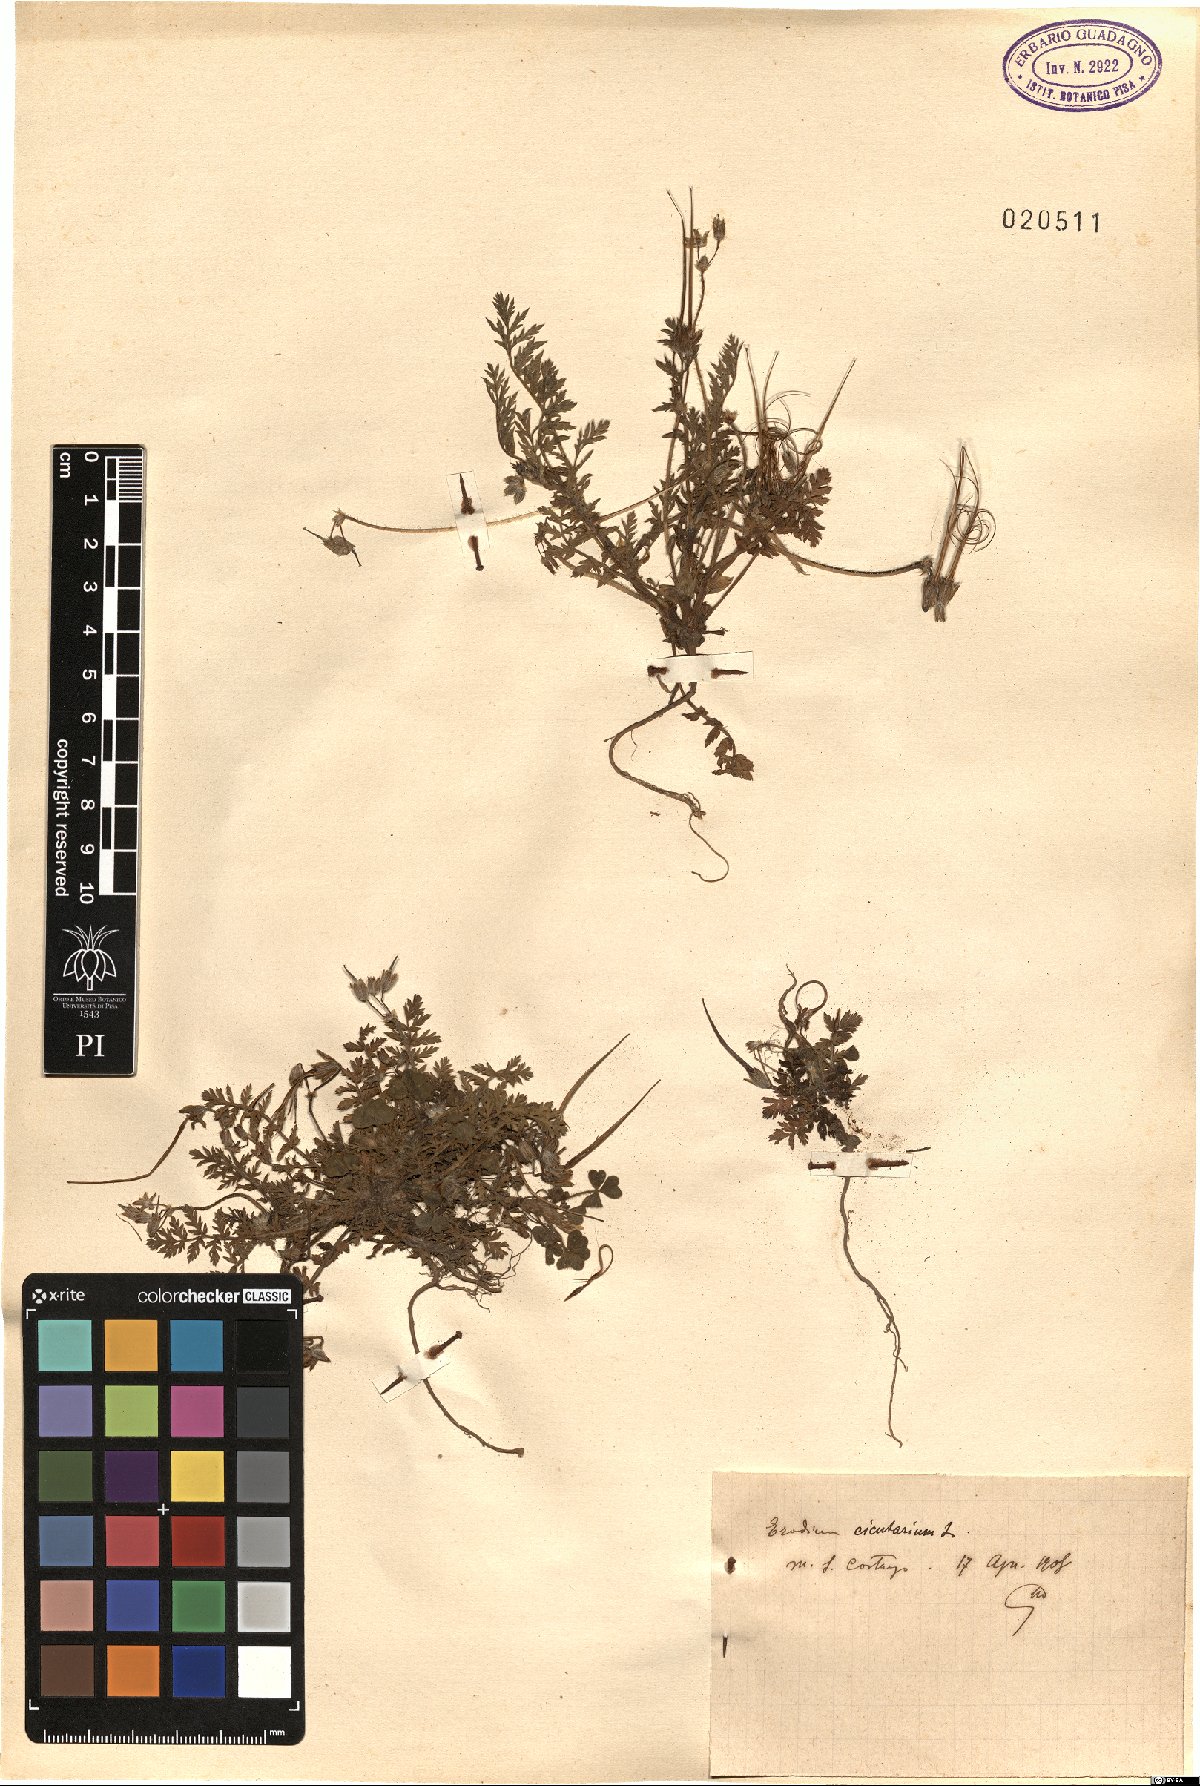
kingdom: Plantae
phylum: Tracheophyta
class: Magnoliopsida
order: Geraniales
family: Geraniaceae
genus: Erodium
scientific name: Erodium cicutarium
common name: Common stork's-bill
